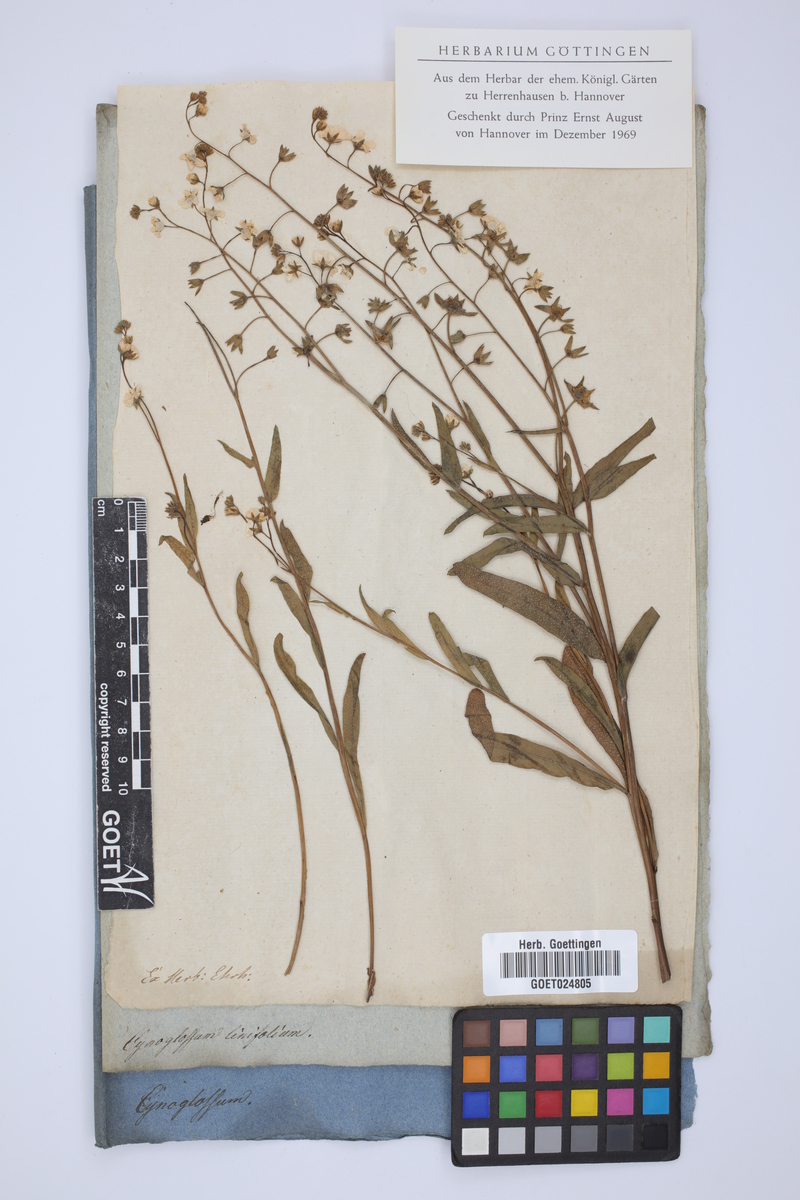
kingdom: Plantae
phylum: Tracheophyta
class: Magnoliopsida
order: Boraginales
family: Boraginaceae
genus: Iberodes
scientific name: Iberodes linifolia
